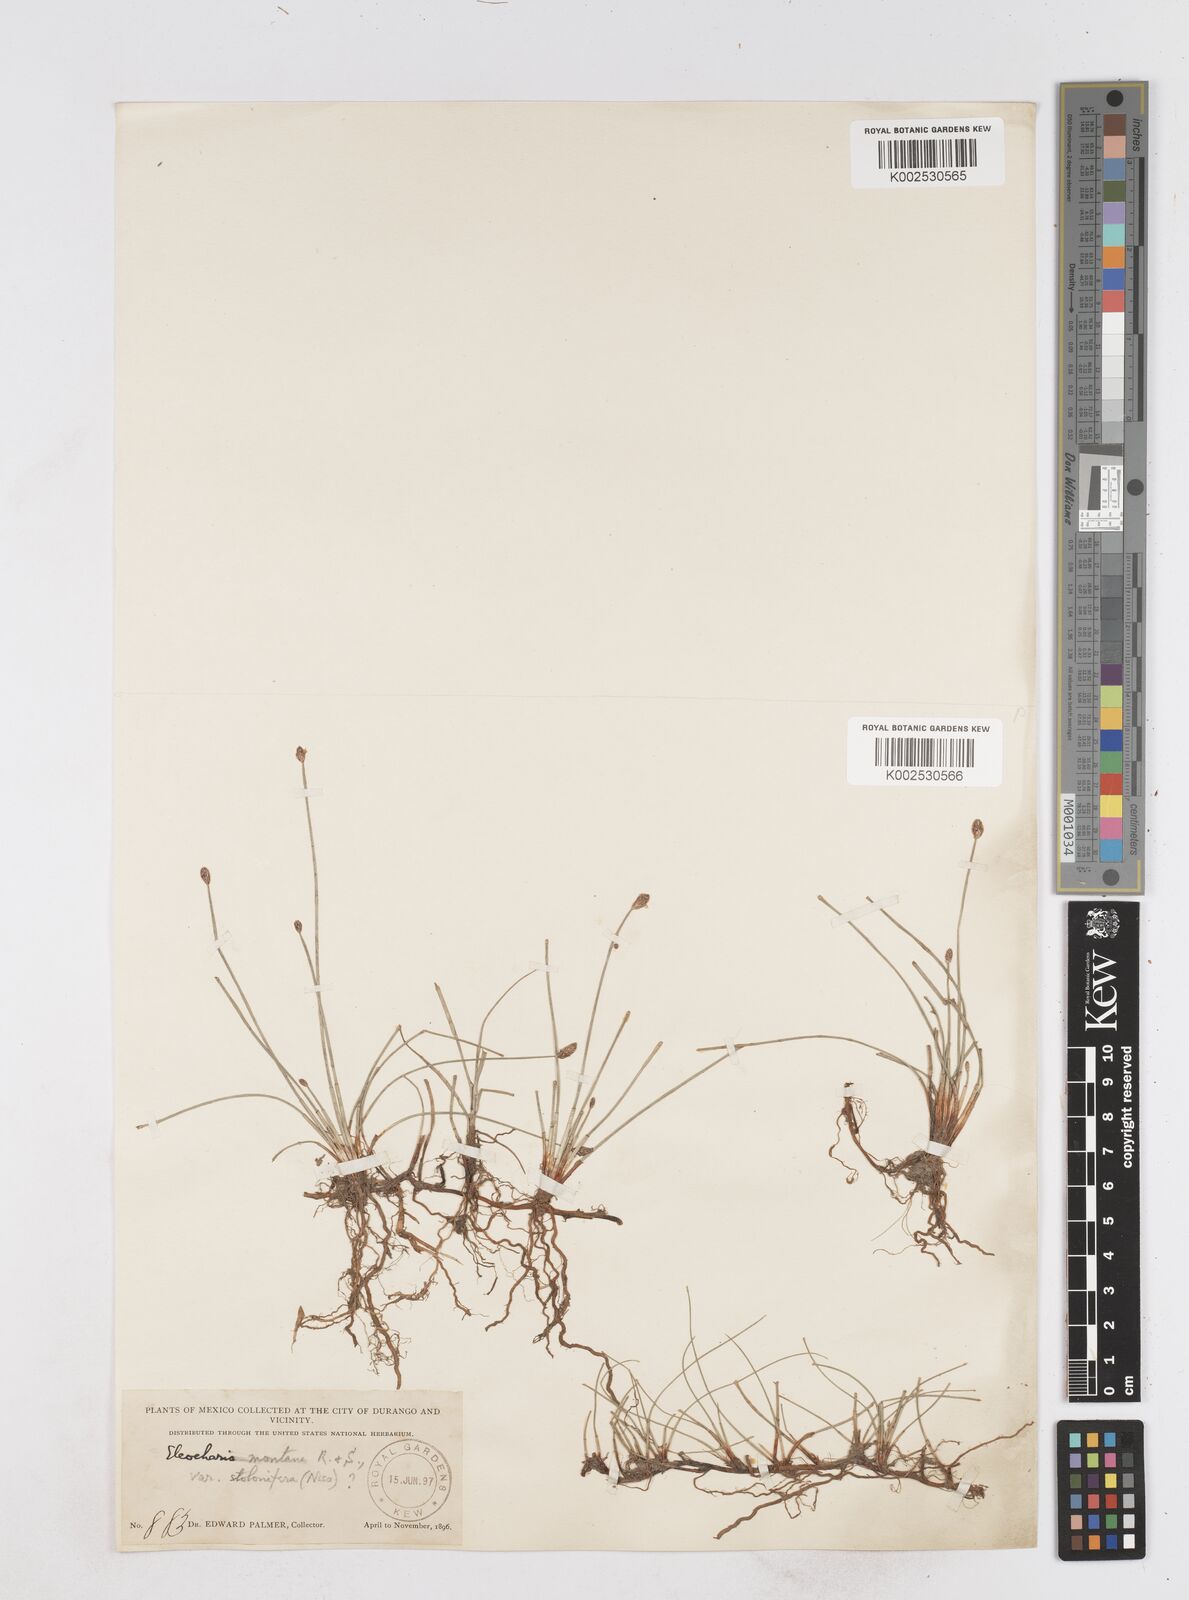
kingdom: Plantae
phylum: Tracheophyta
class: Liliopsida
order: Poales
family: Cyperaceae
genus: Eleocharis
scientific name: Eleocharis montana
